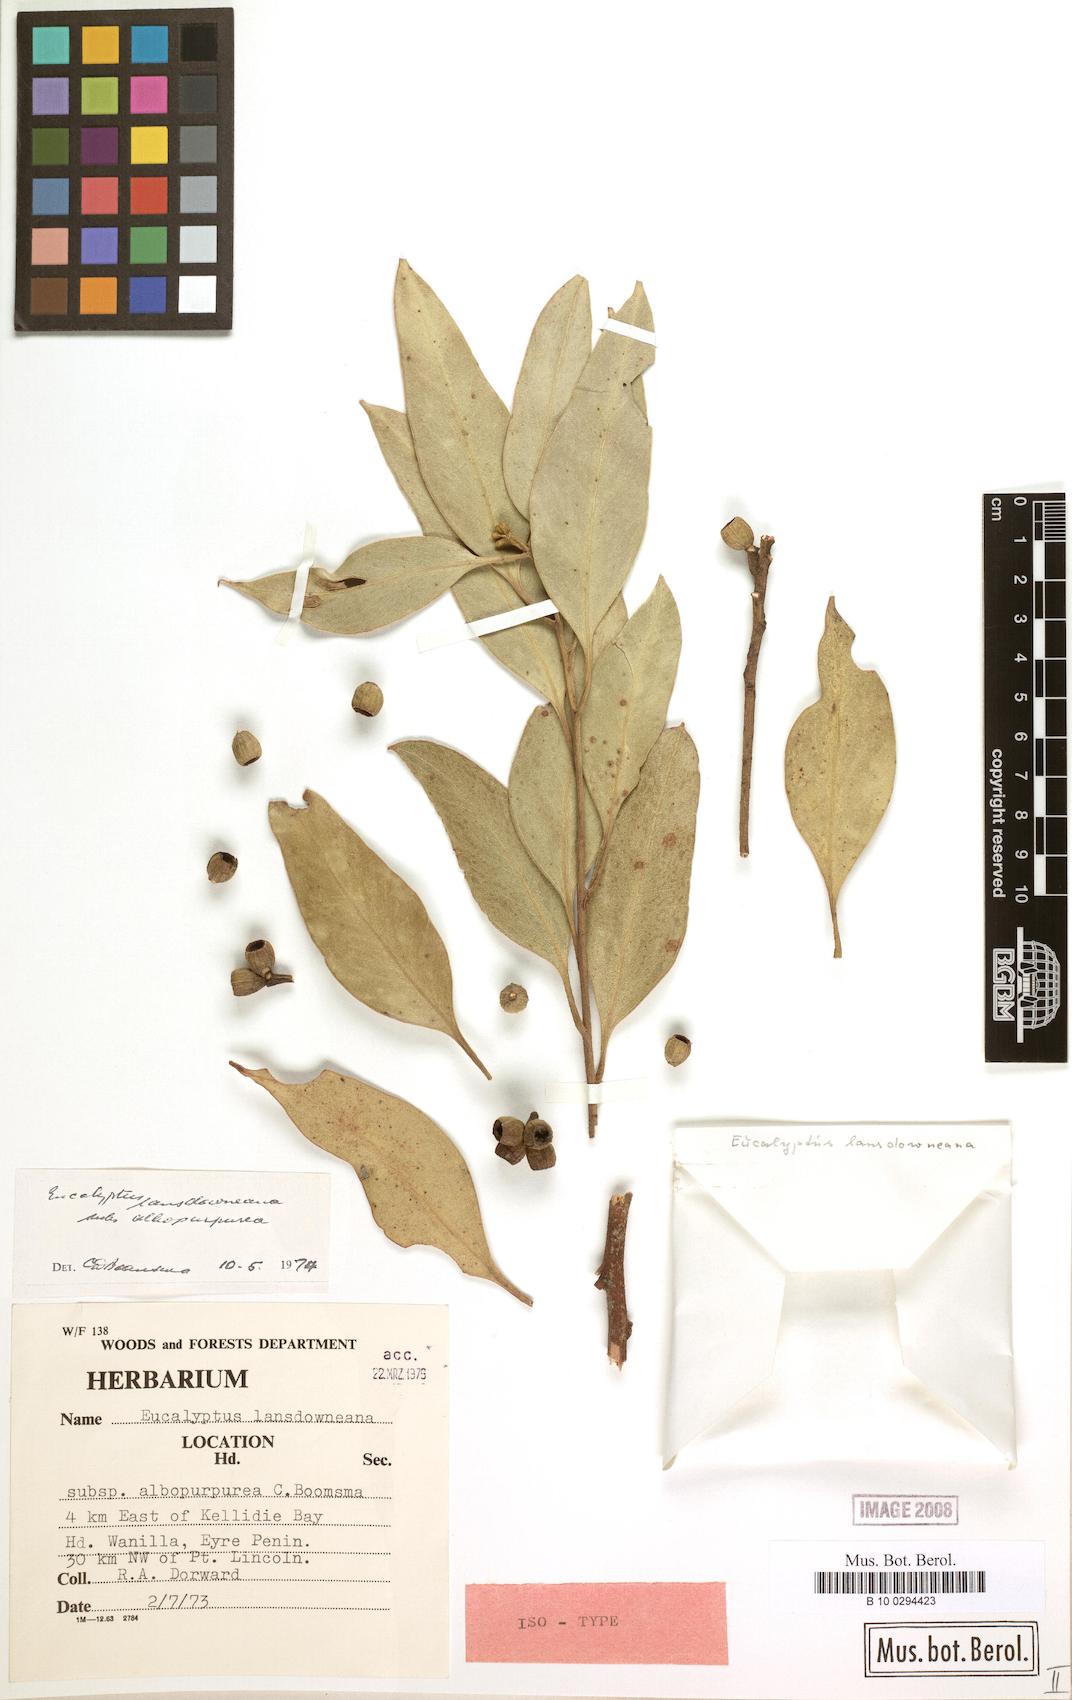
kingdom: Plantae
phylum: Tracheophyta
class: Magnoliopsida
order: Myrtales
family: Myrtaceae
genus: Eucalyptus
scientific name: Eucalyptus albopurpurea
